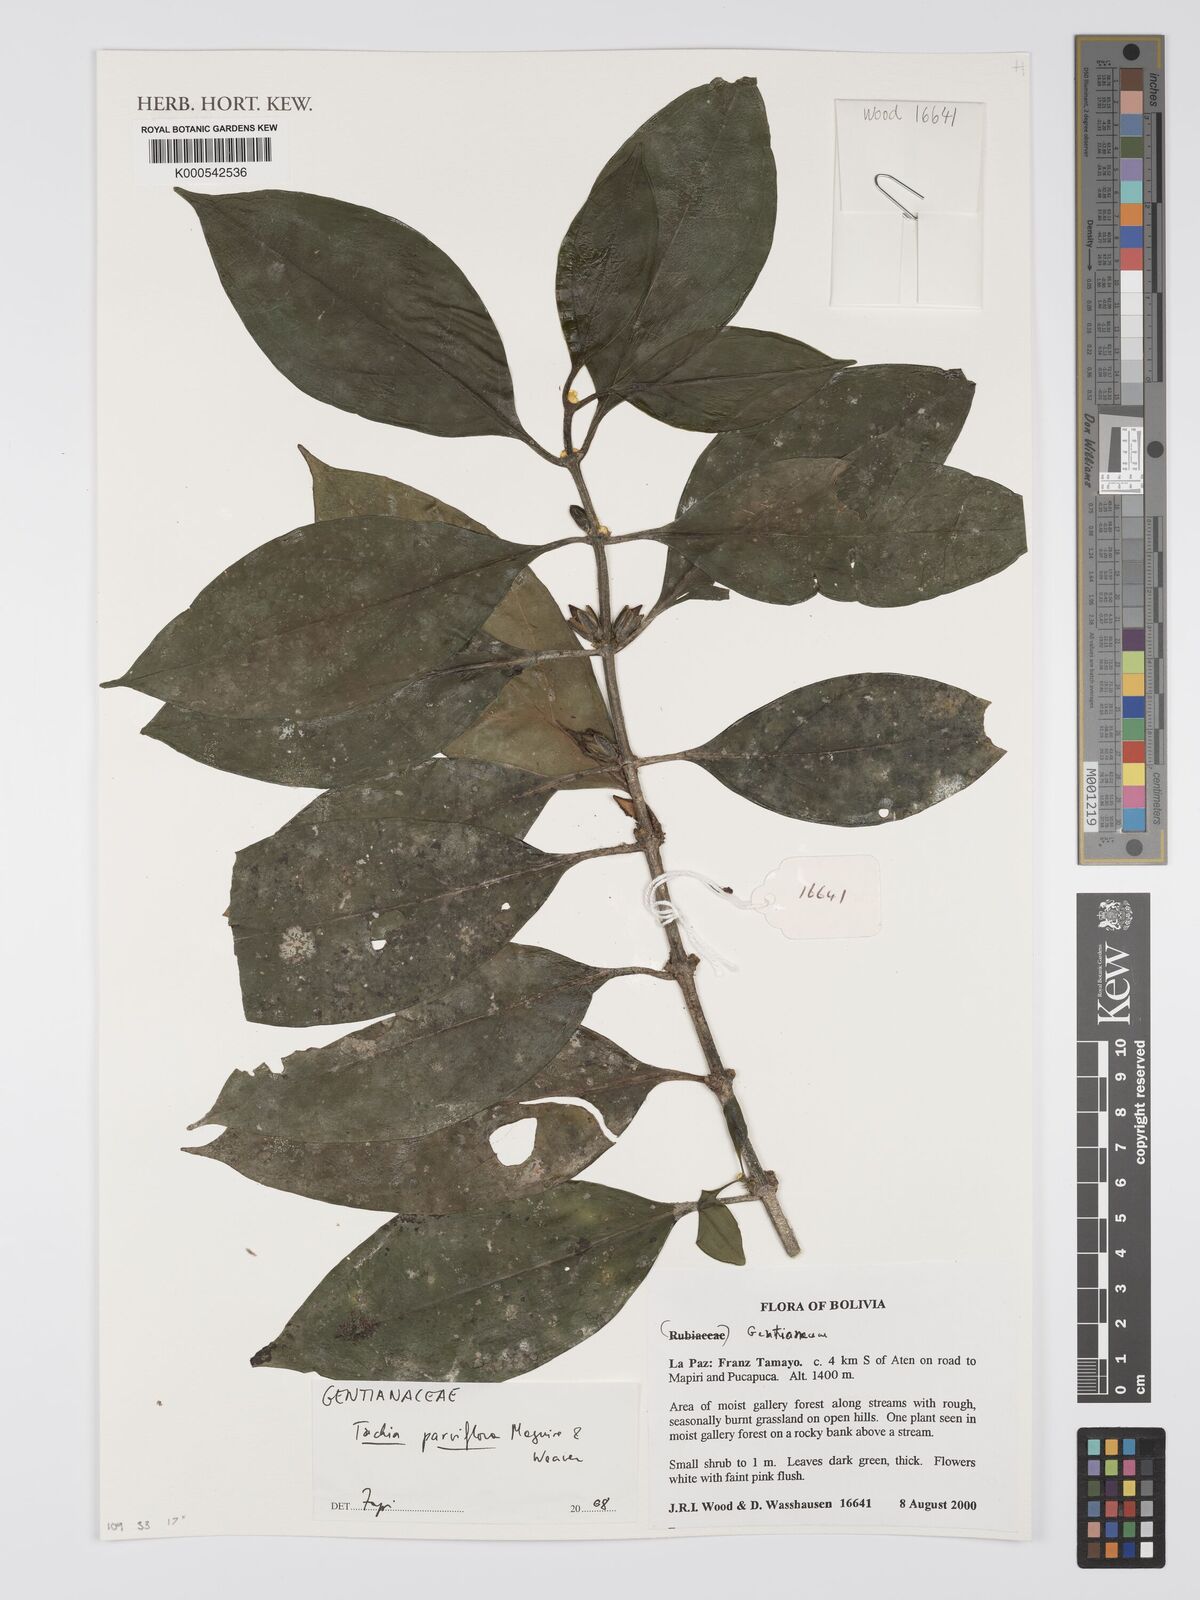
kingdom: Plantae
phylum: Tracheophyta
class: Magnoliopsida
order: Gentianales
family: Gentianaceae
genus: Tachia
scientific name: Tachia parviflora
